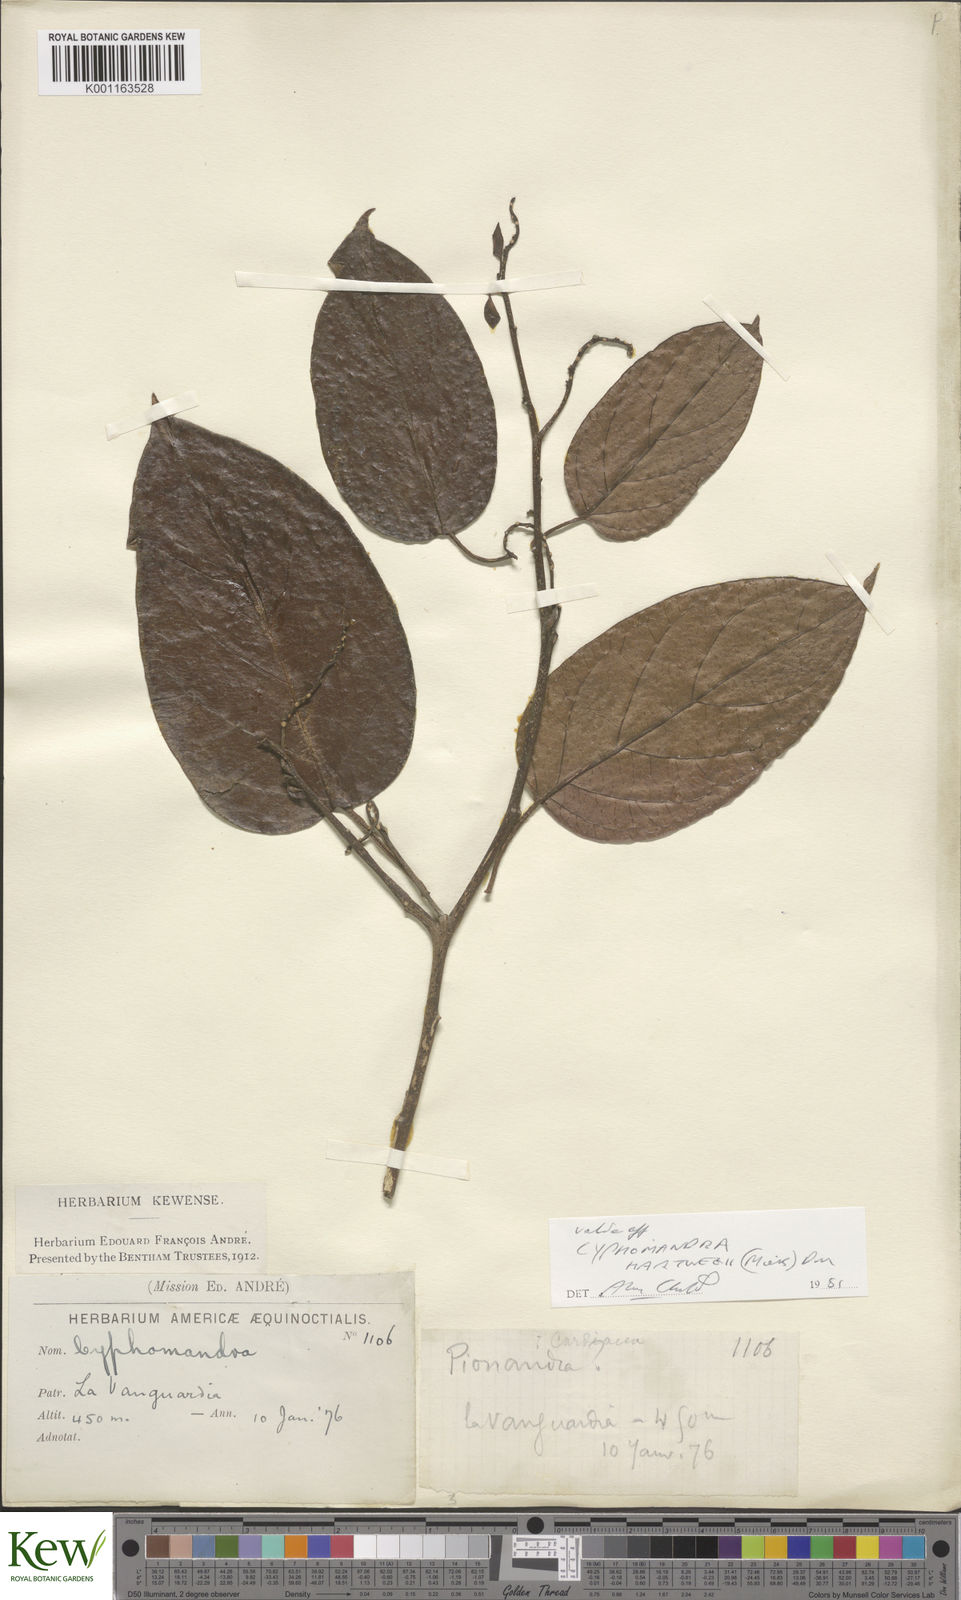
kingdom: Plantae
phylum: Tracheophyta
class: Magnoliopsida
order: Solanales
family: Solanaceae
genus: Solanum
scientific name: Solanum splendens
